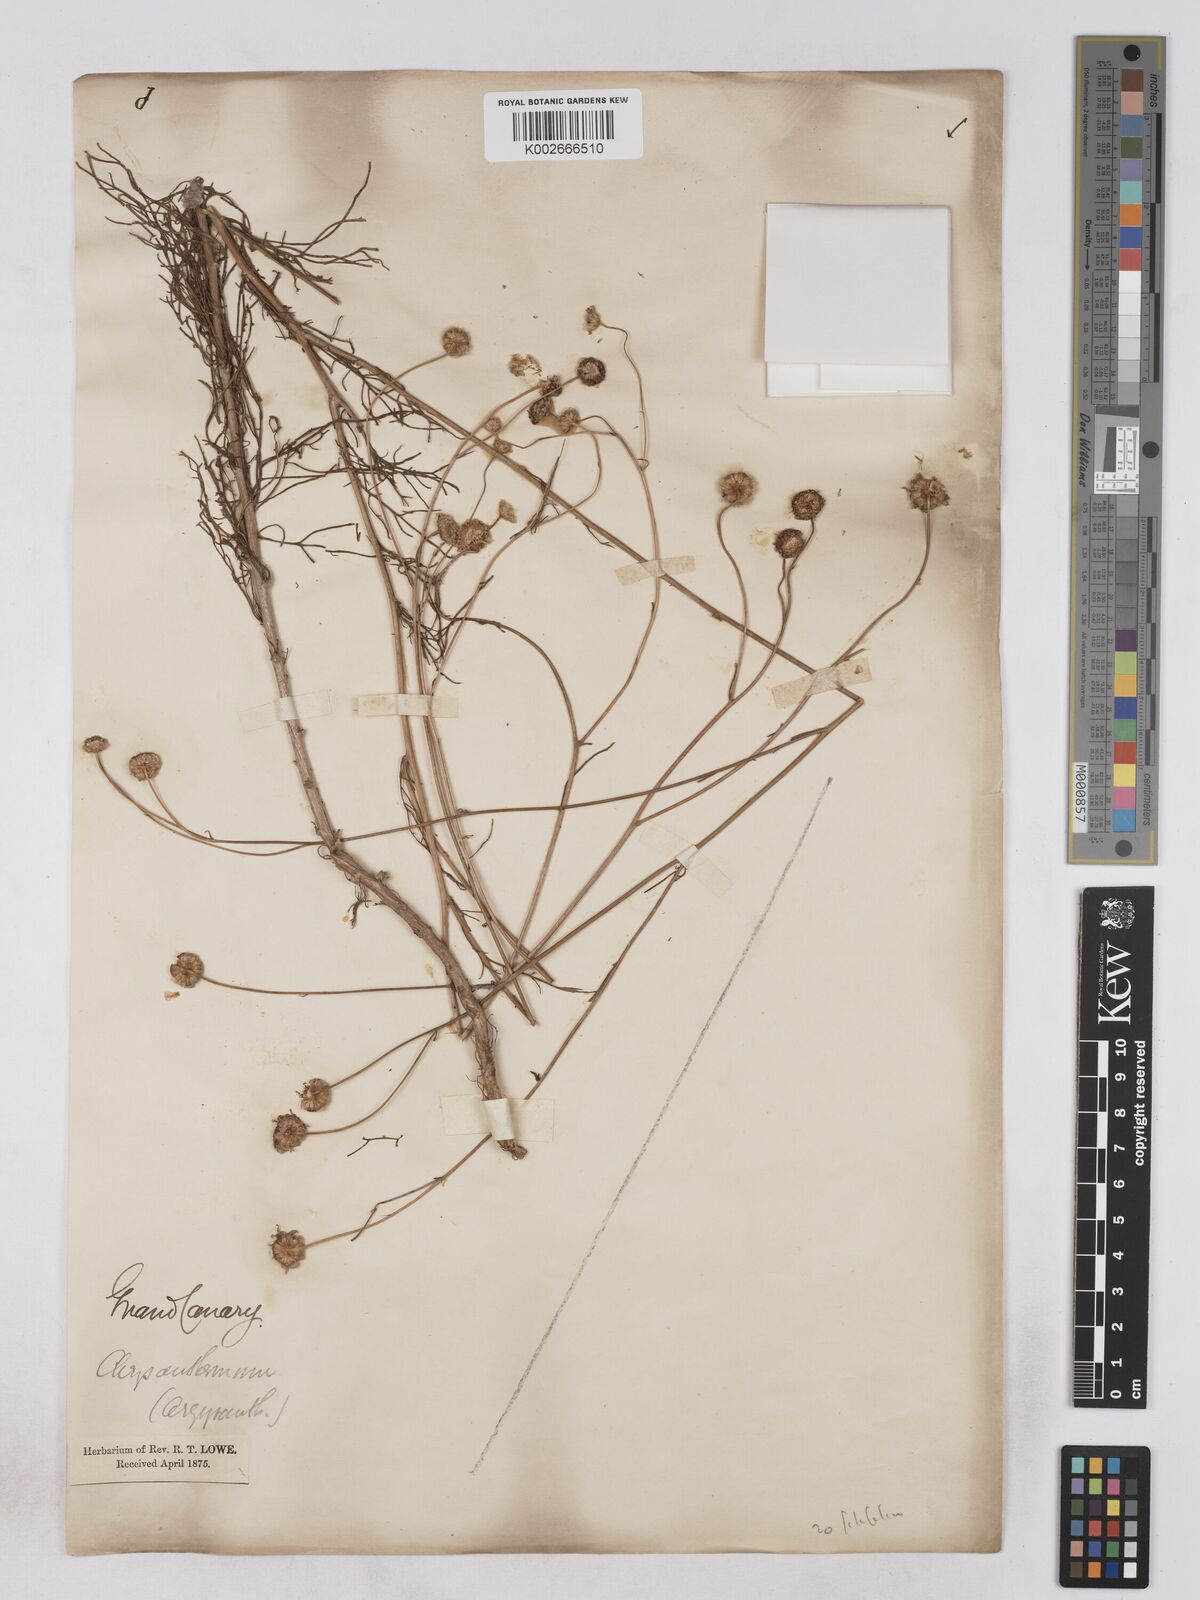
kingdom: Plantae
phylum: Tracheophyta
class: Magnoliopsida
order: Asterales
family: Asteraceae
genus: Argyranthemum
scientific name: Argyranthemum filifolium
